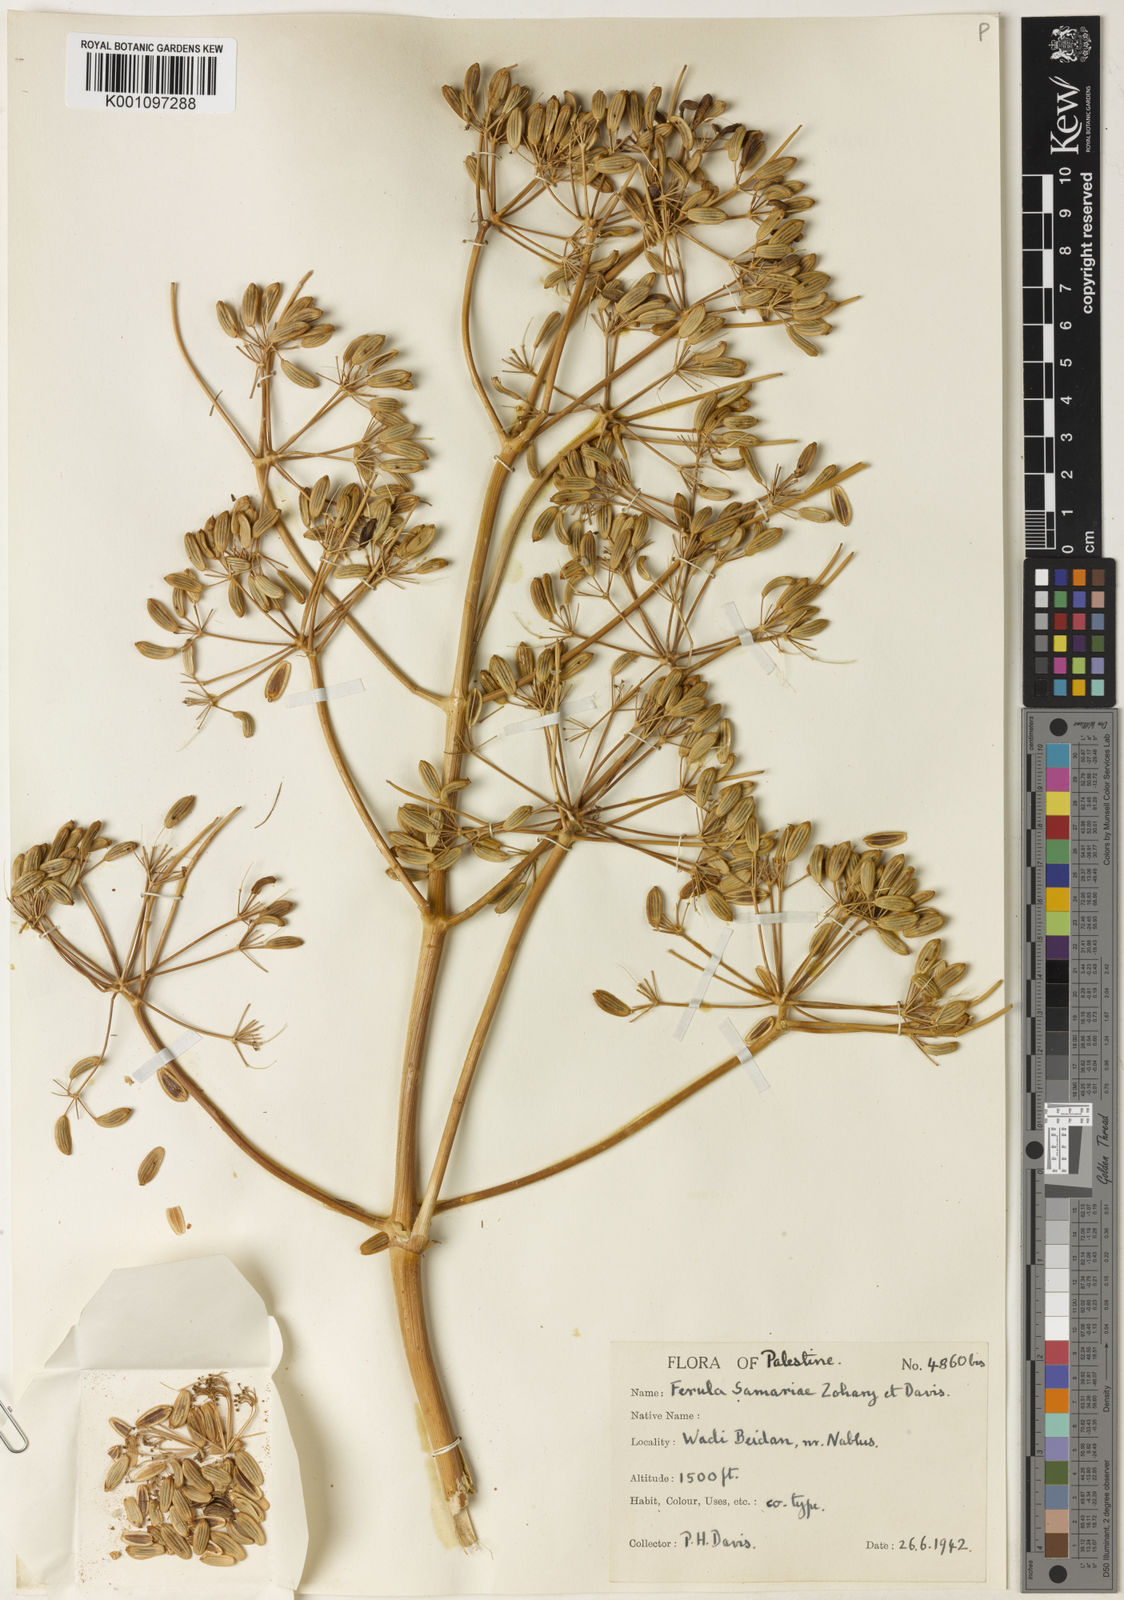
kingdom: Plantae
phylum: Tracheophyta
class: Magnoliopsida
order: Apiales
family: Apiaceae
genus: Ferula
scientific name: Ferula orientalis
